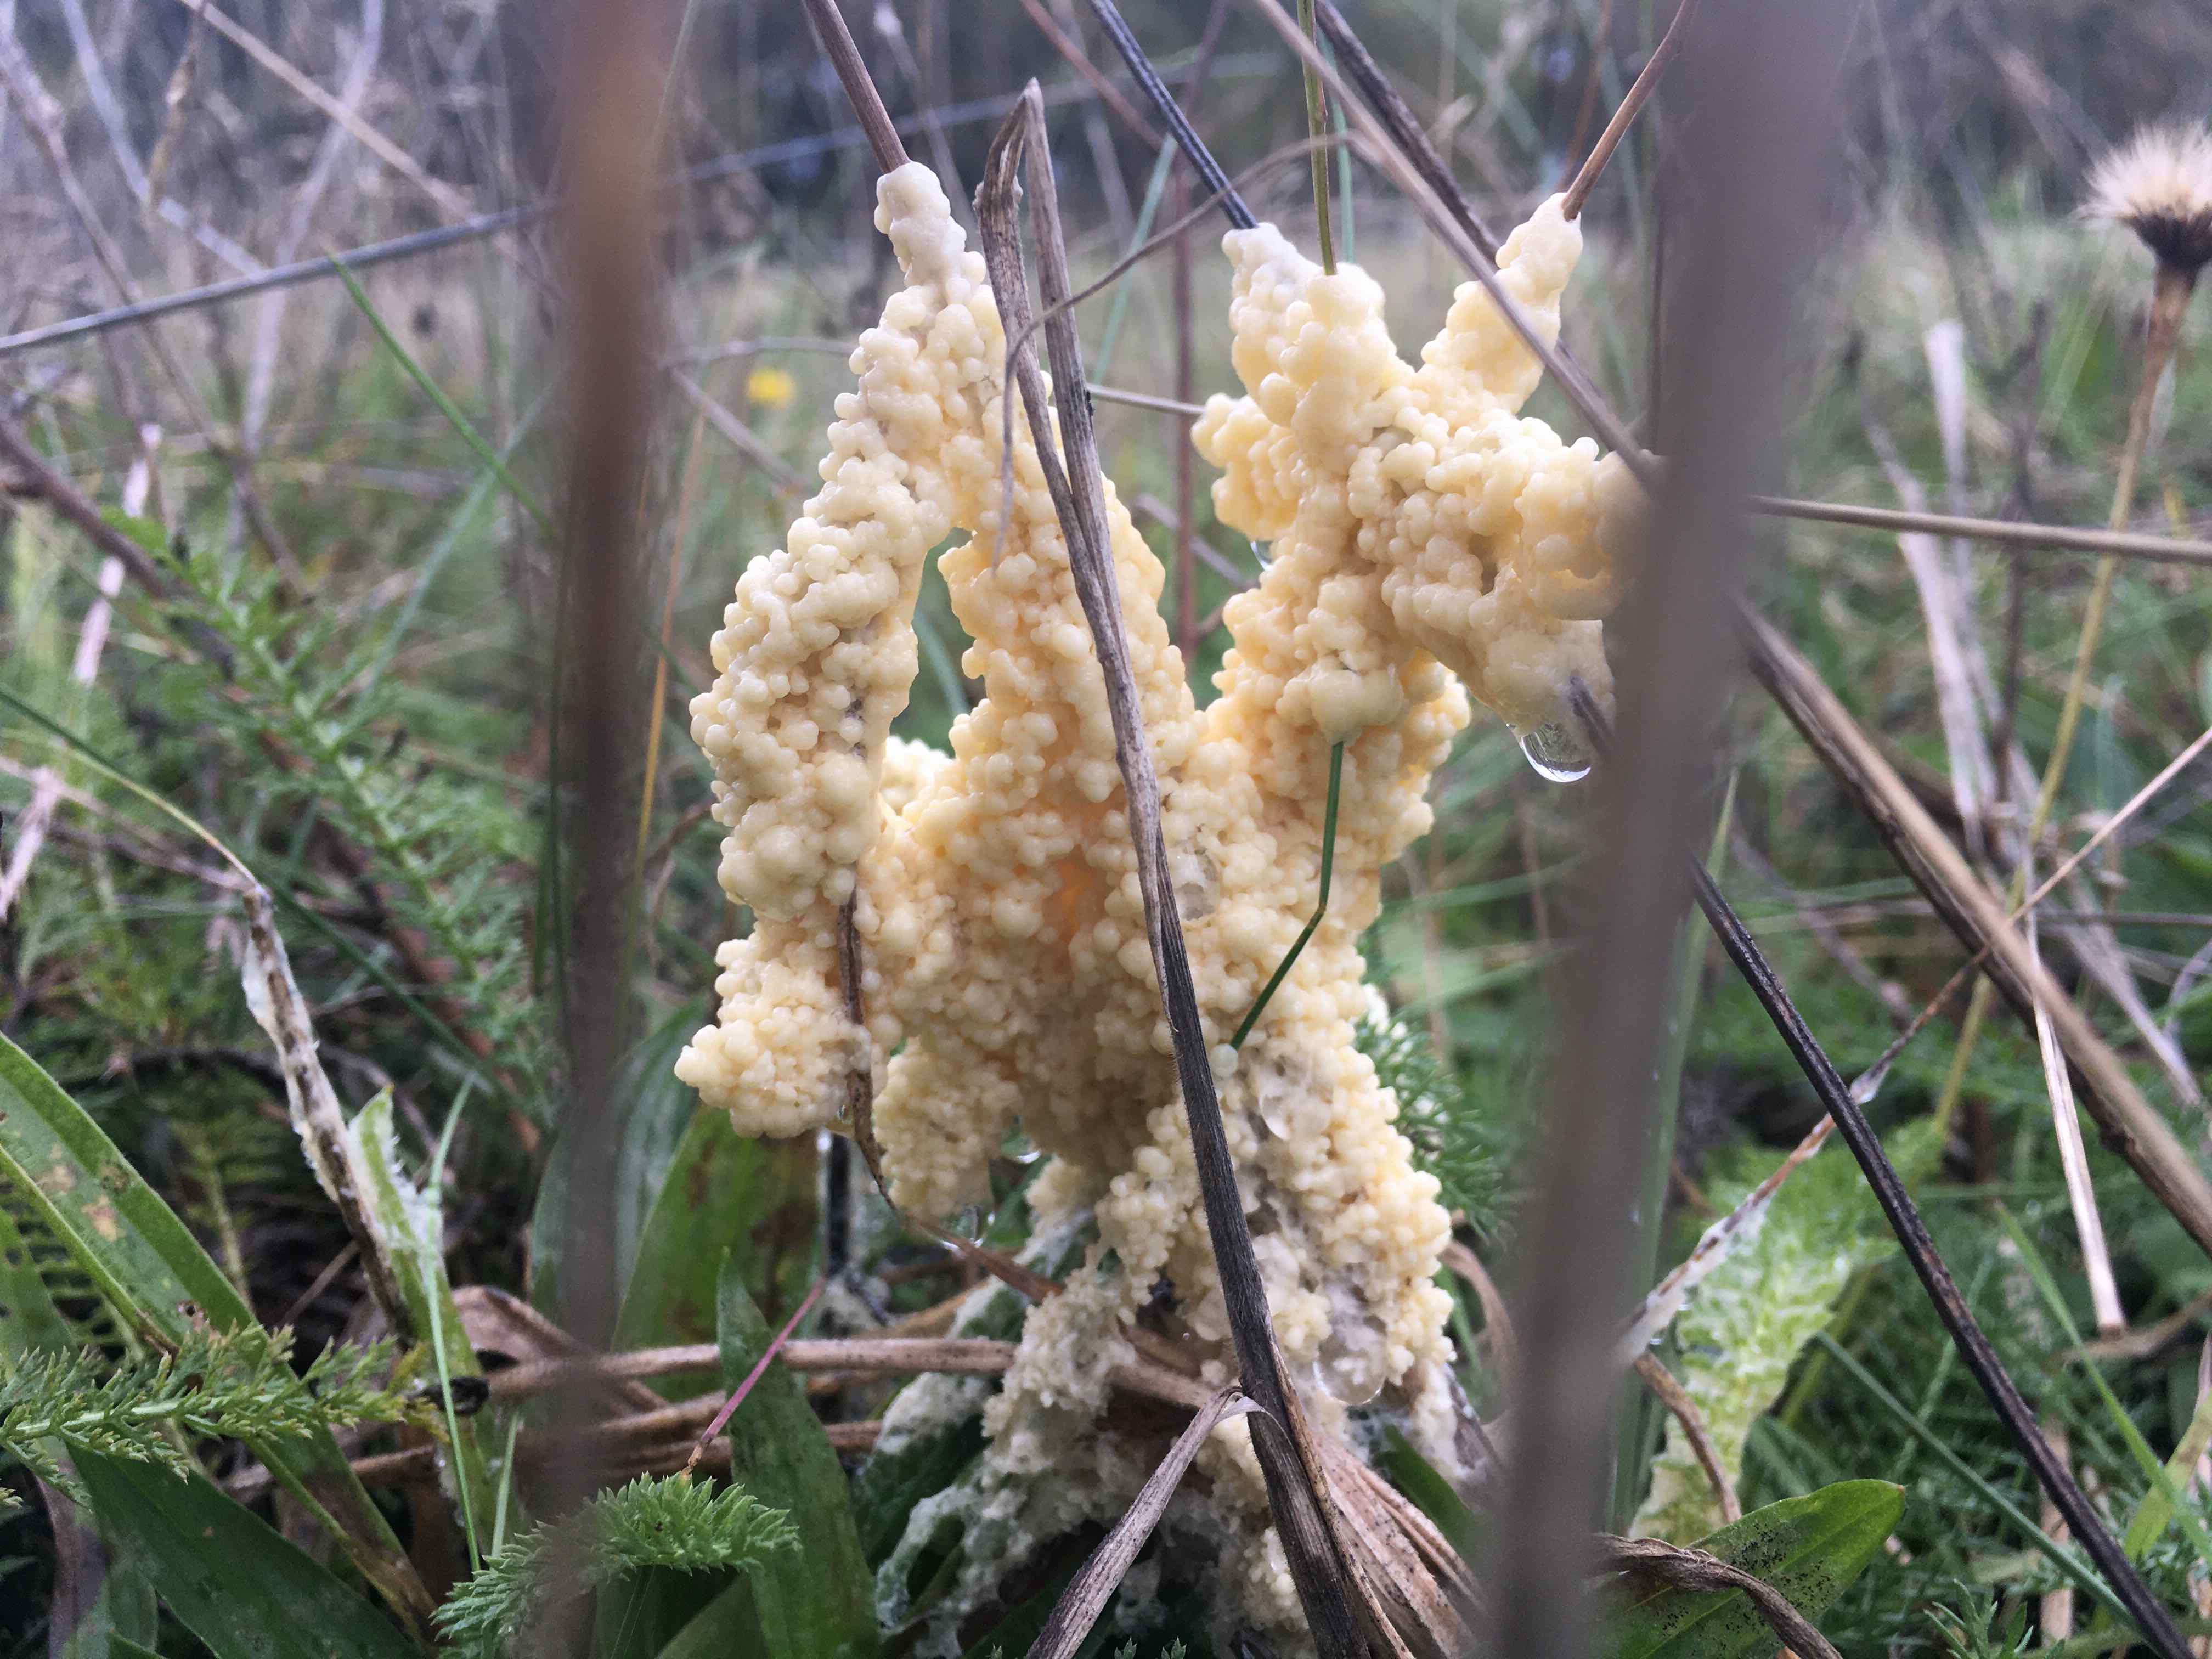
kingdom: Protozoa
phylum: Mycetozoa
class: Myxomycetes
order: Physarales
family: Physaraceae
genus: Didymium
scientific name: Didymium
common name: urteskum
